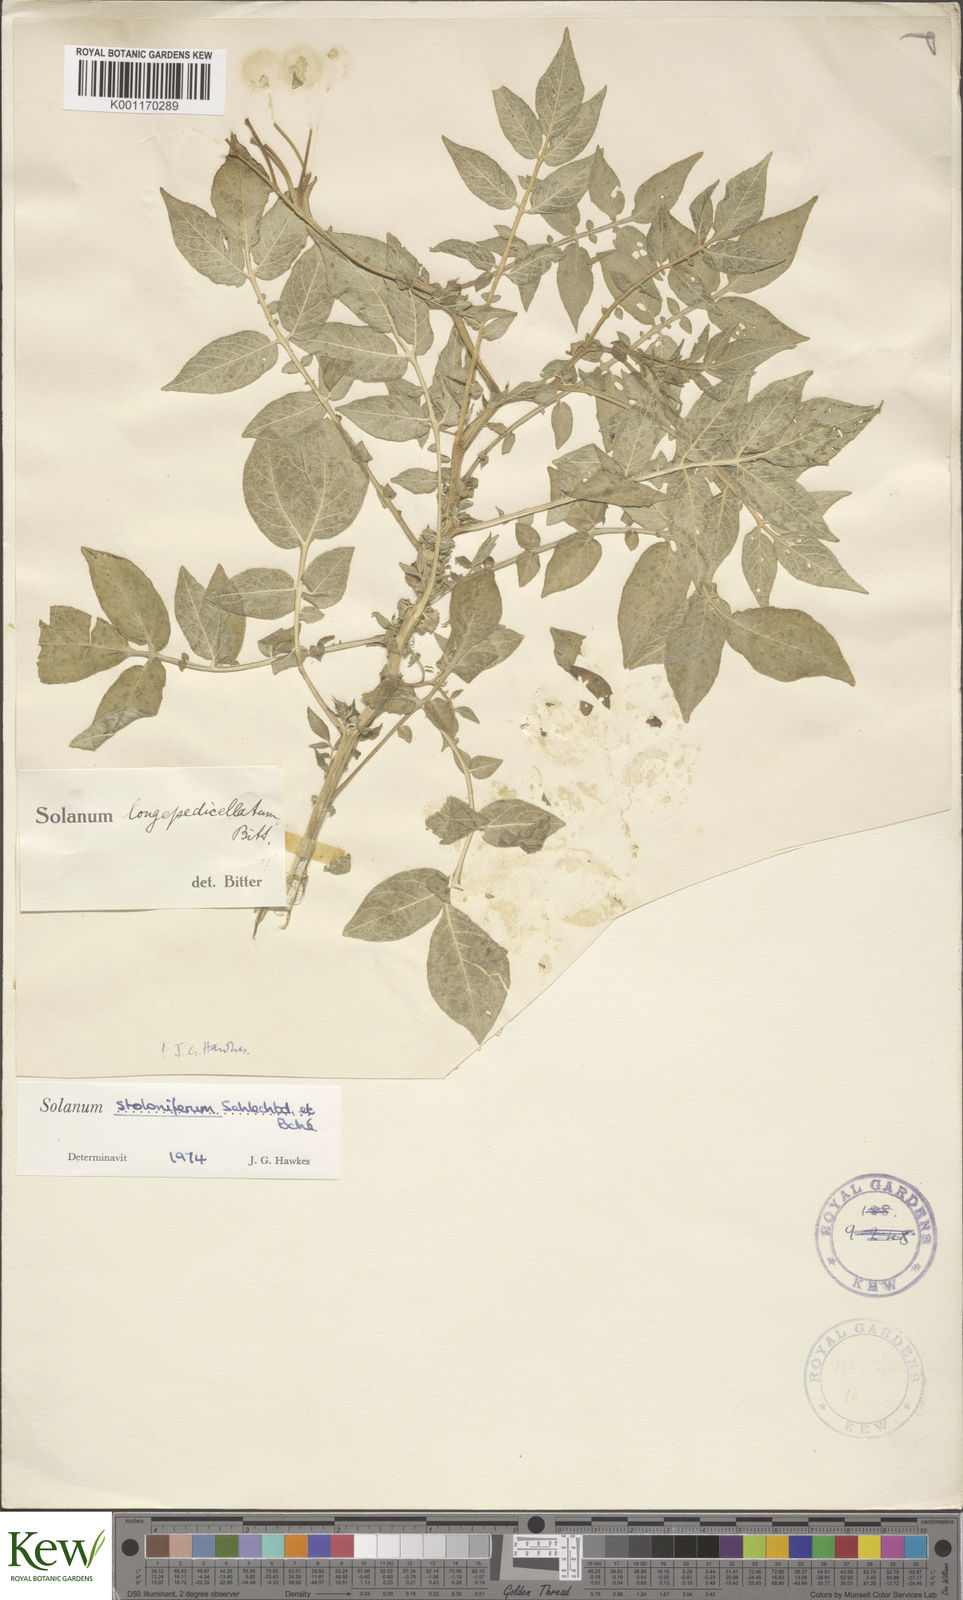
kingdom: Plantae
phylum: Tracheophyta
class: Magnoliopsida
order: Solanales
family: Solanaceae
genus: Solanum
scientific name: Solanum stoloniferum
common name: Fendler's nighshade
